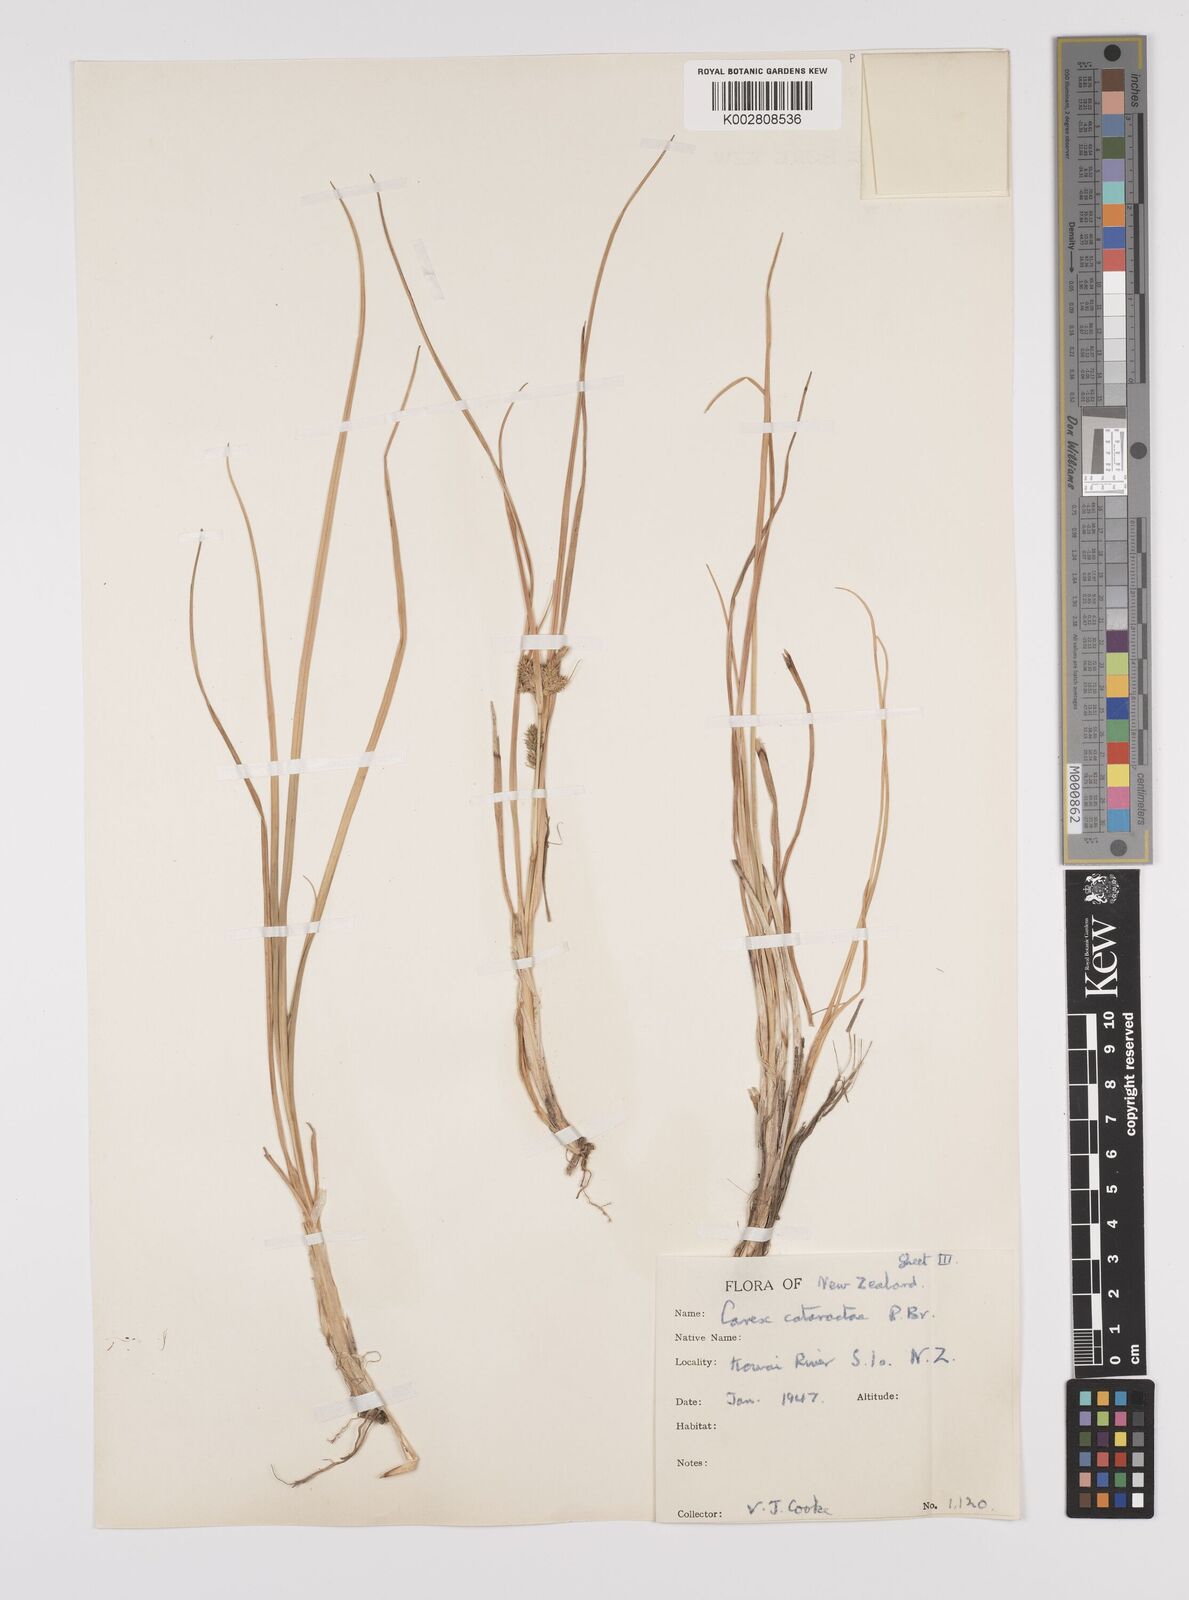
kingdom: Plantae
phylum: Tracheophyta
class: Liliopsida
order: Poales
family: Cyperaceae
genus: Carex
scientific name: Carex demissa
